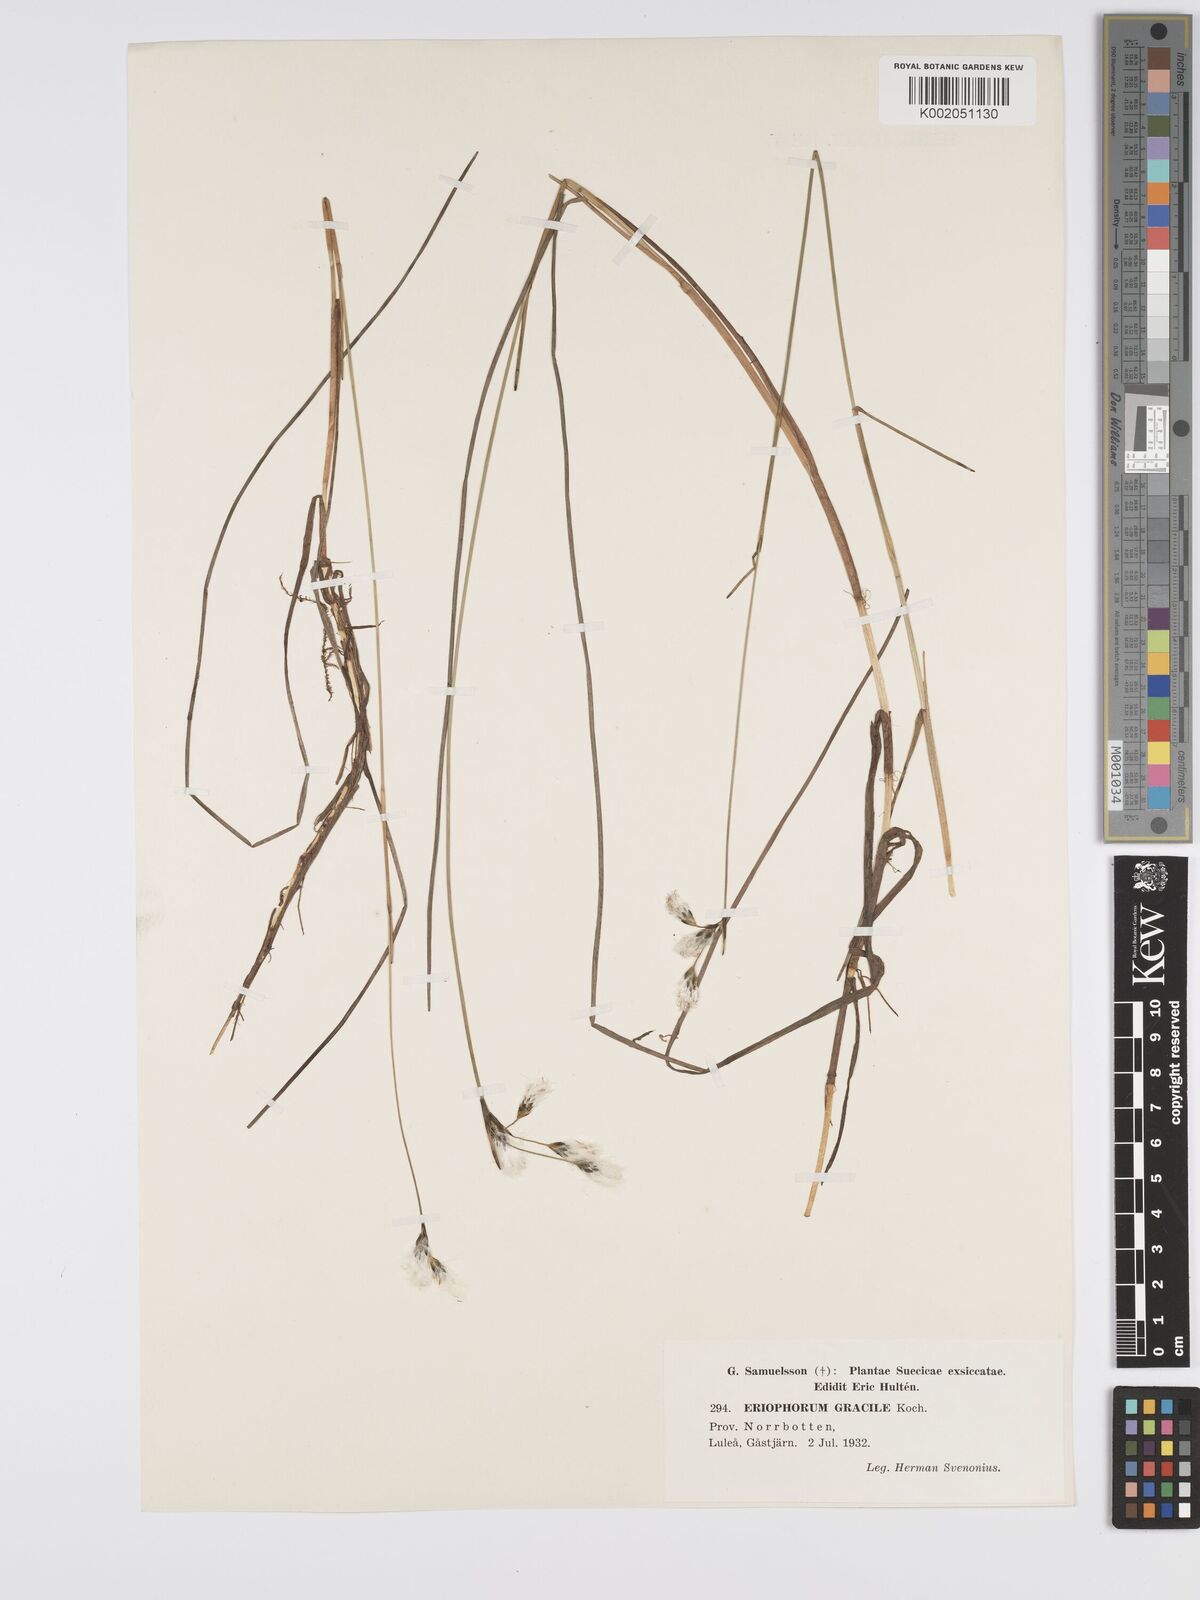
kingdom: Plantae
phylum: Tracheophyta
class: Liliopsida
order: Poales
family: Cyperaceae
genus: Eriophorum
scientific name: Eriophorum gracile
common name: Slender cottongrass
